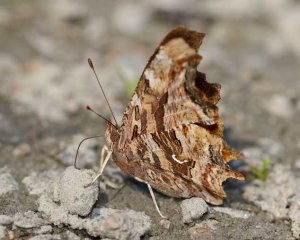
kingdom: Animalia
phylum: Arthropoda
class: Insecta
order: Lepidoptera
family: Nymphalidae
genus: Polygonia
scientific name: Polygonia satyrus
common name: Satyr Comma
